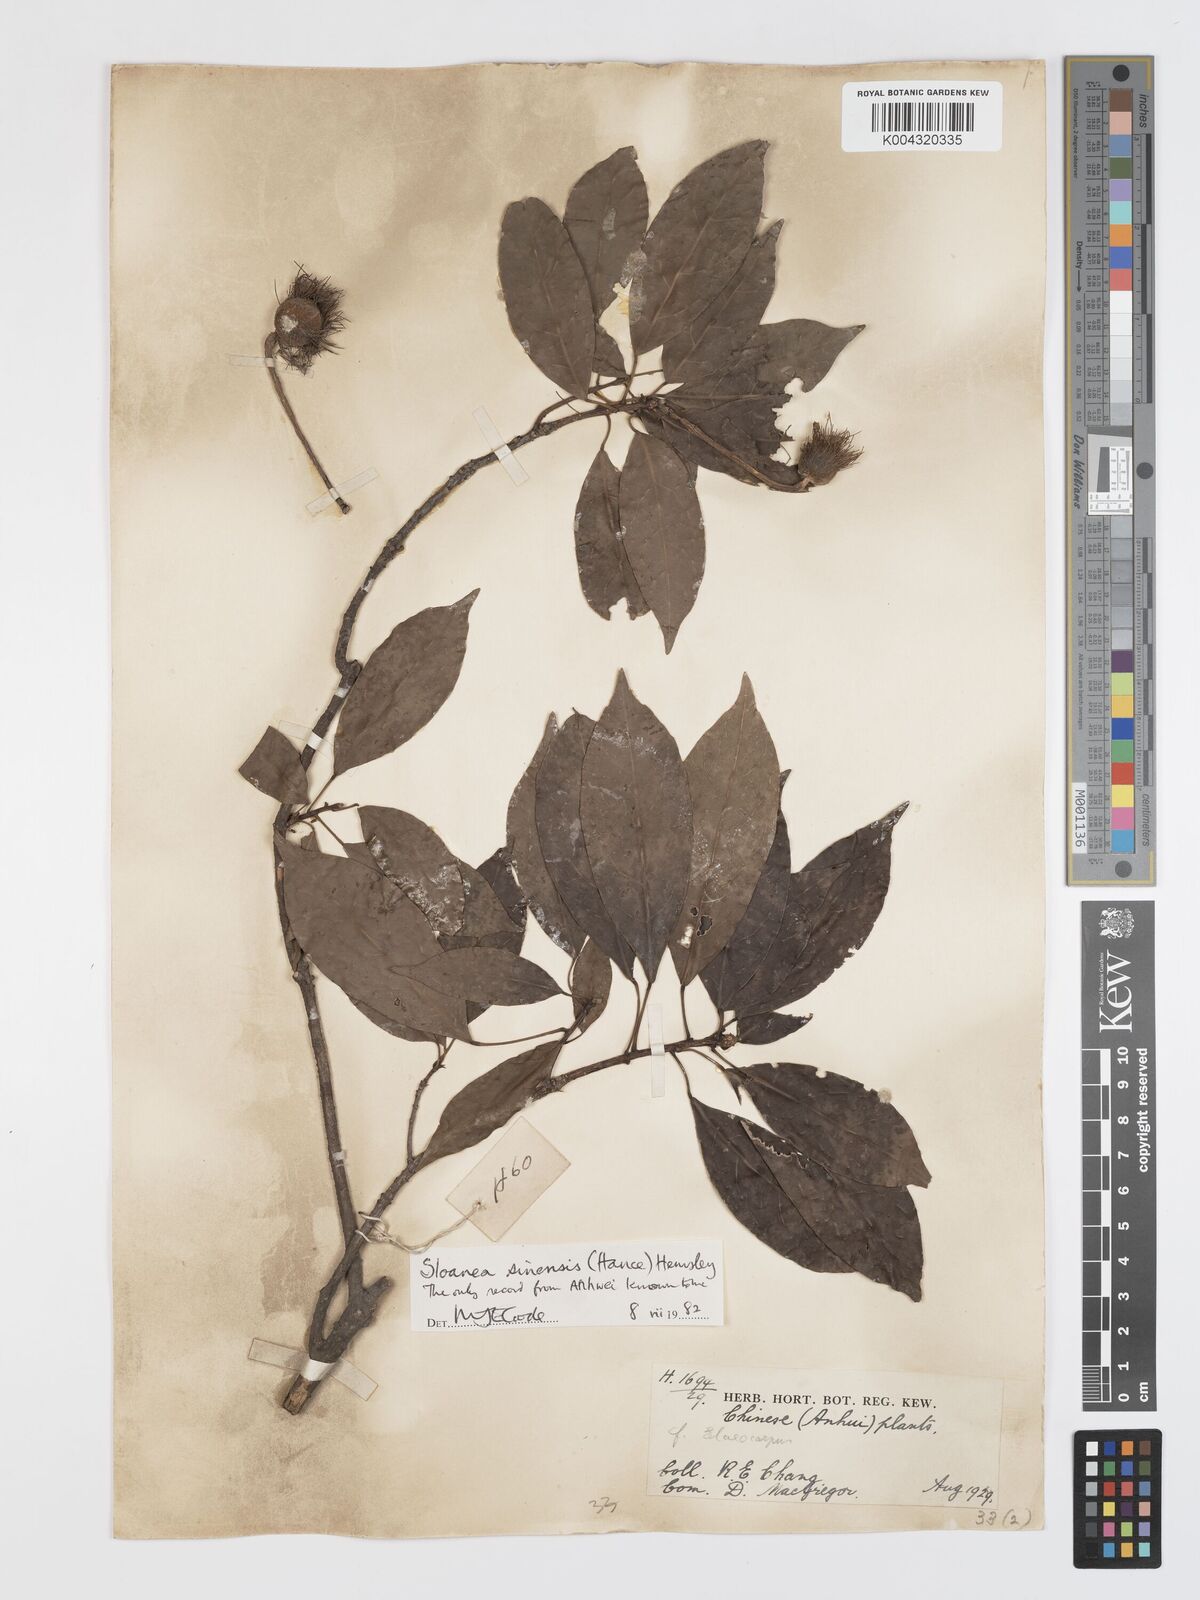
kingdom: Plantae
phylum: Tracheophyta
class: Magnoliopsida
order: Oxalidales
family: Elaeocarpaceae
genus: Sloanea
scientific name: Sloanea sinensis
